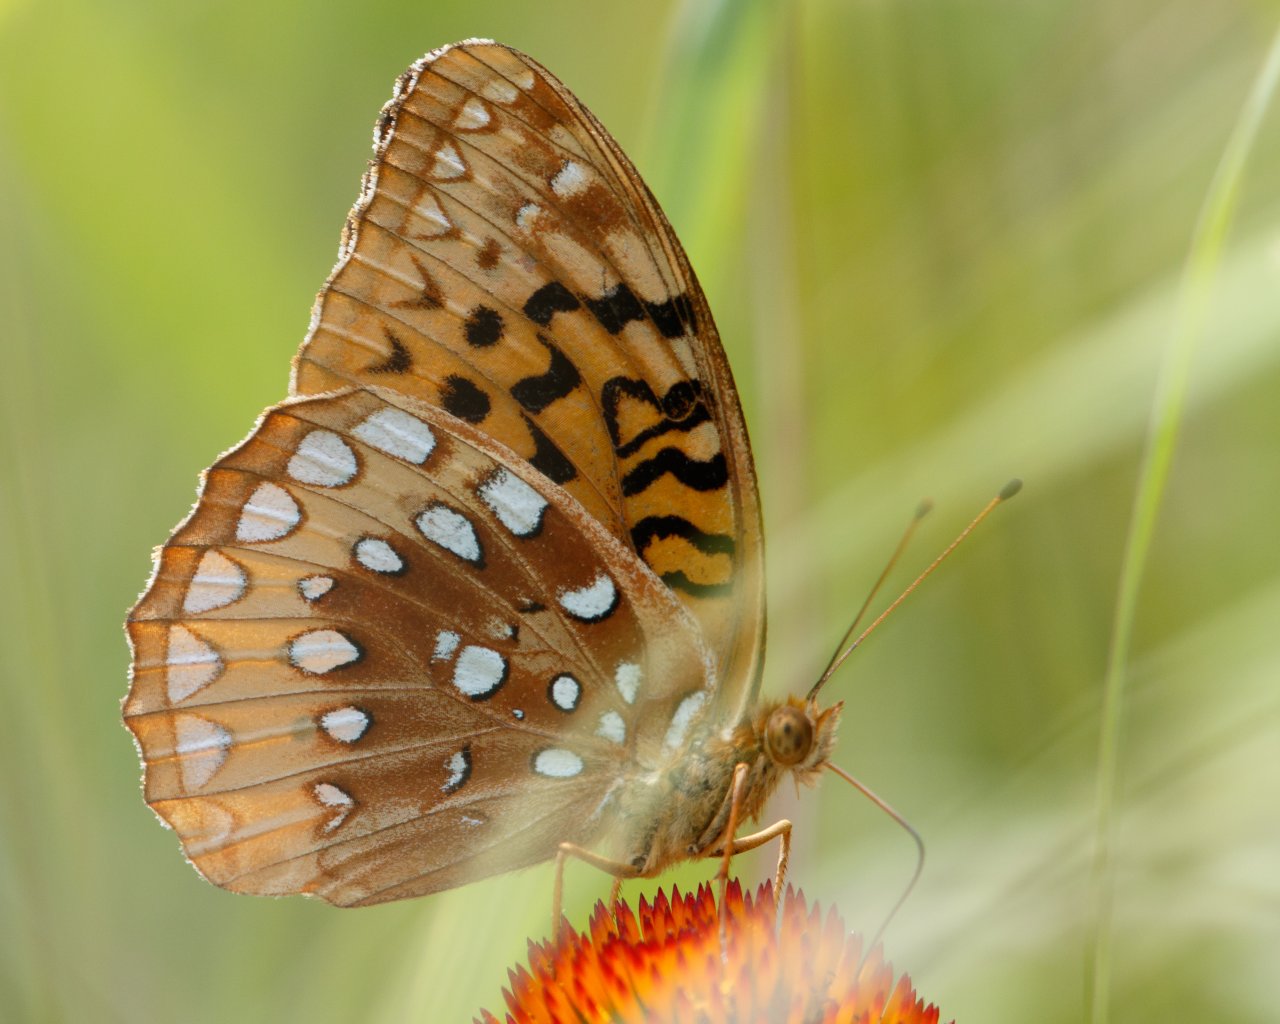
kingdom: Animalia
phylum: Arthropoda
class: Insecta
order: Lepidoptera
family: Nymphalidae
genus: Speyeria
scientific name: Speyeria cybele
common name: Great Spangled Fritillary
